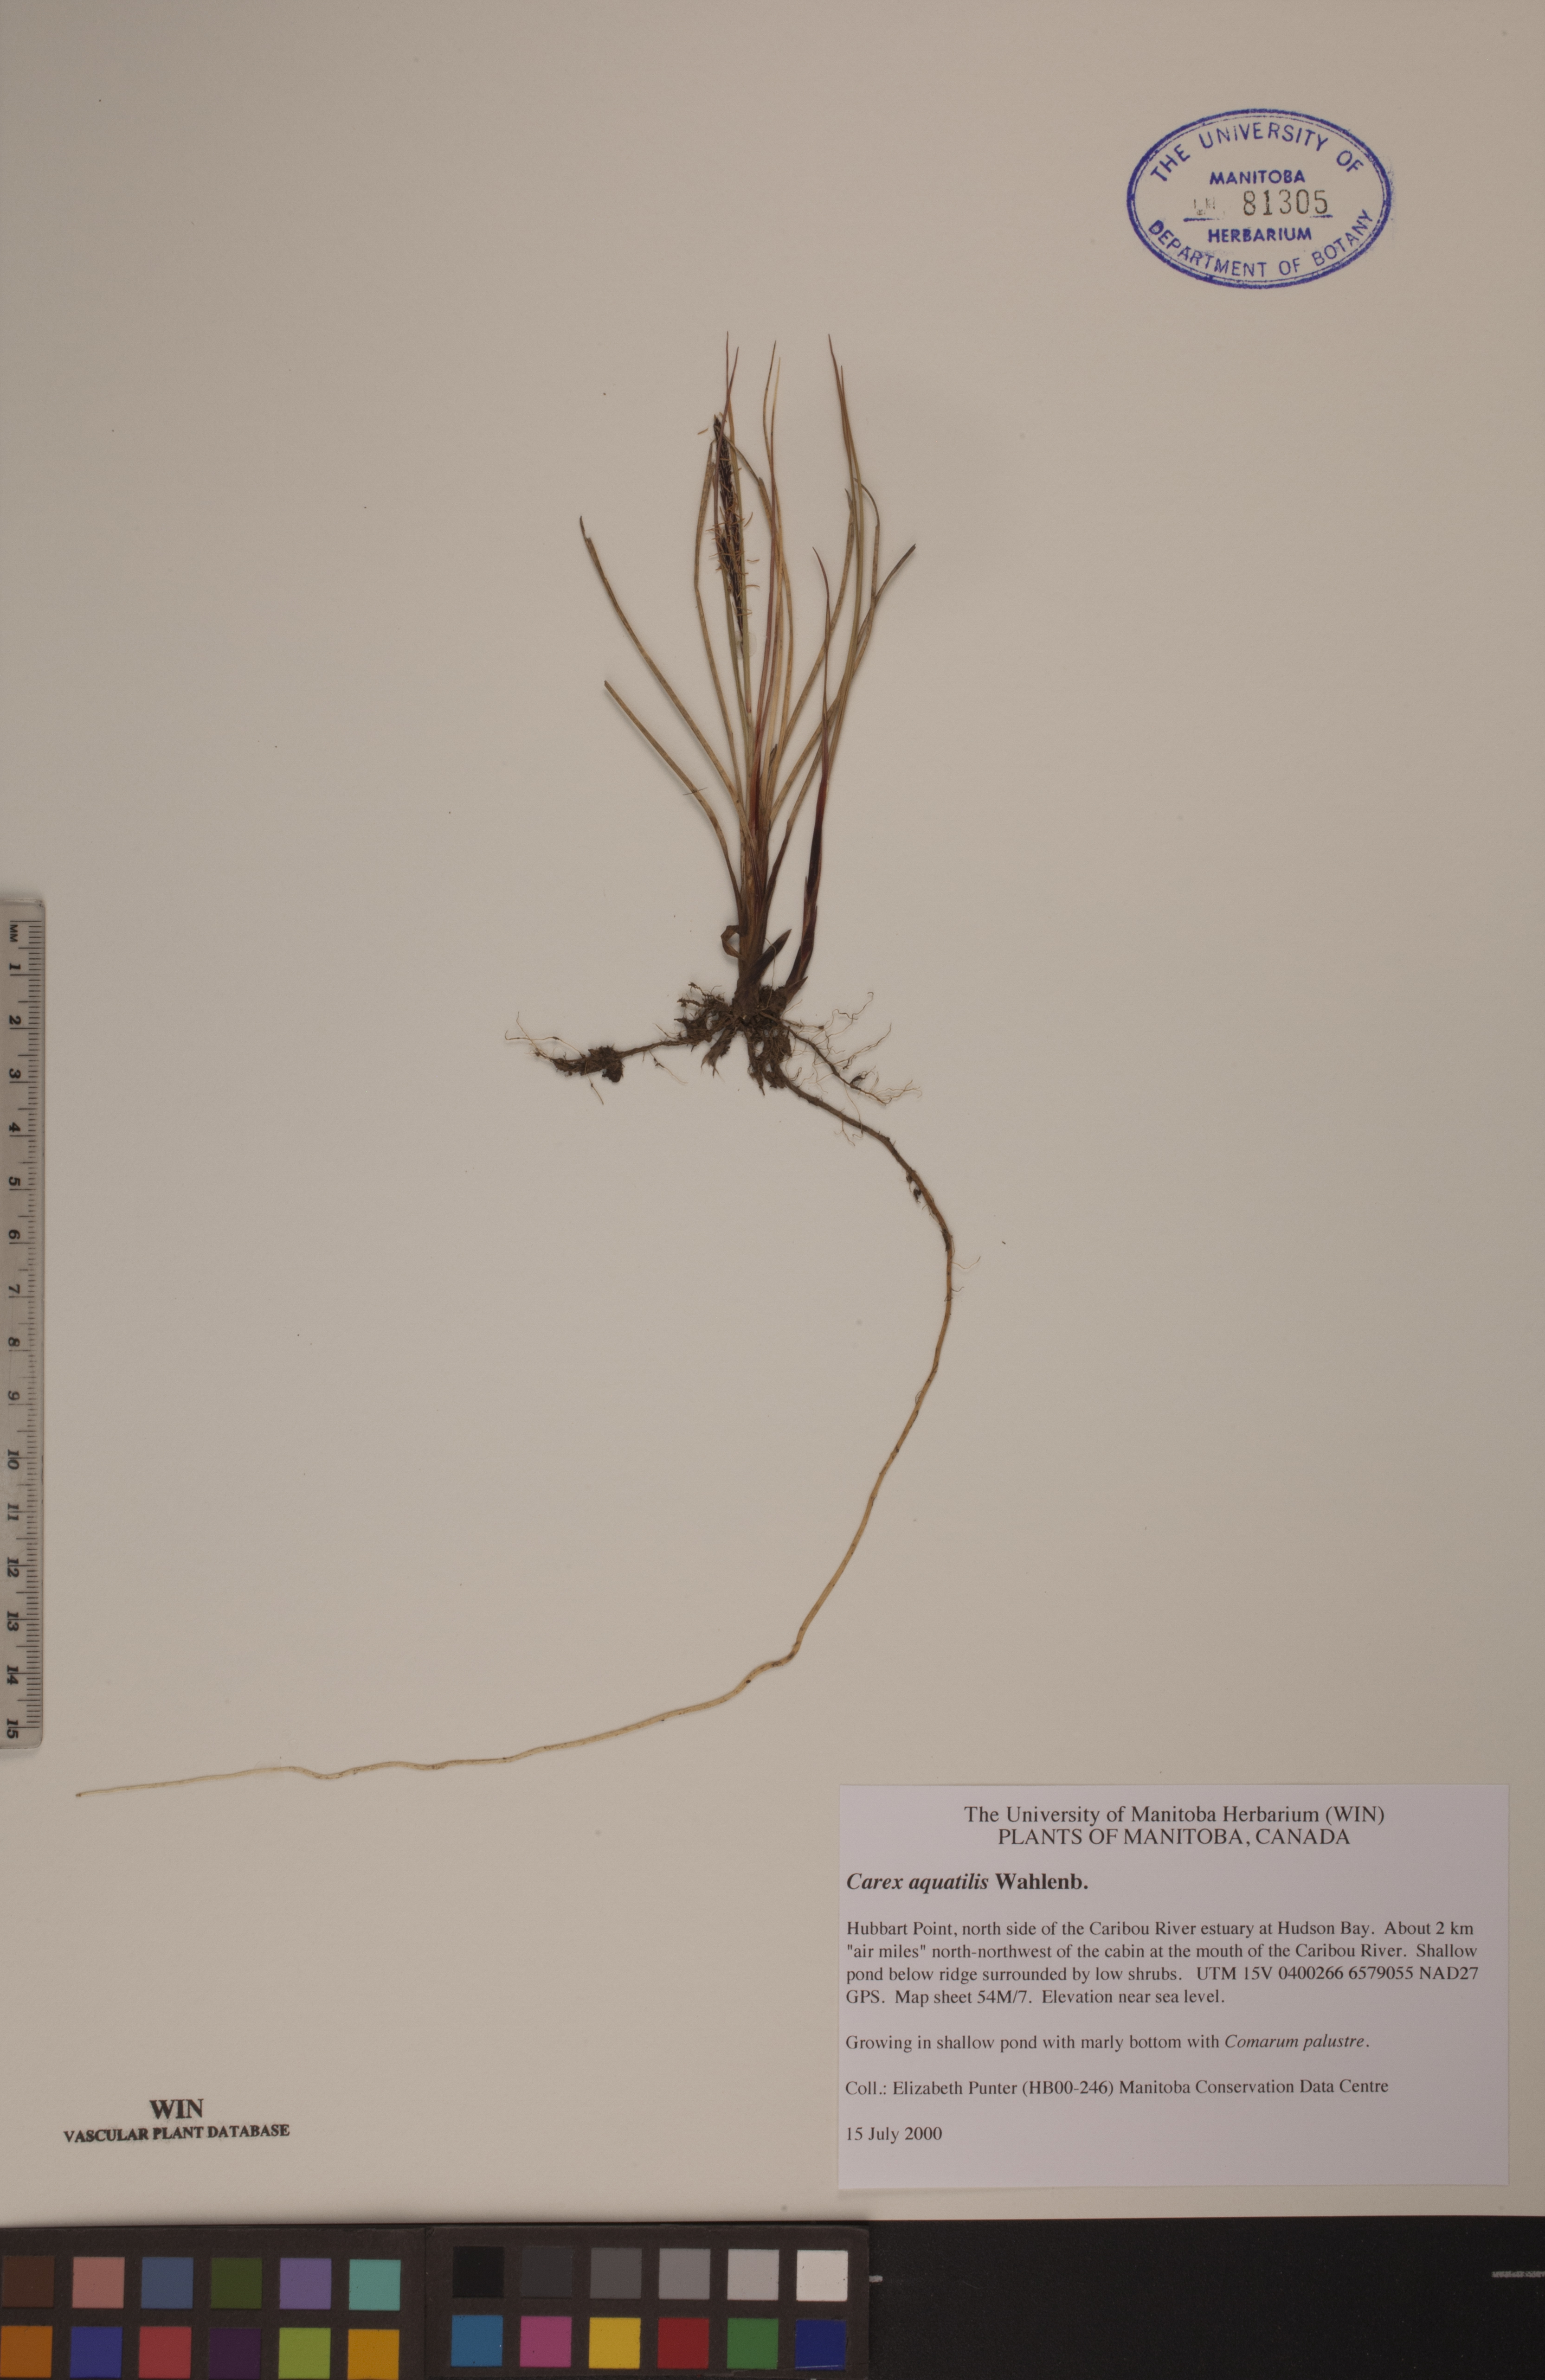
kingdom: Plantae
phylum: Tracheophyta
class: Liliopsida
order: Poales
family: Cyperaceae
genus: Carex
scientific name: Carex aquatilis
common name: Water sedge
